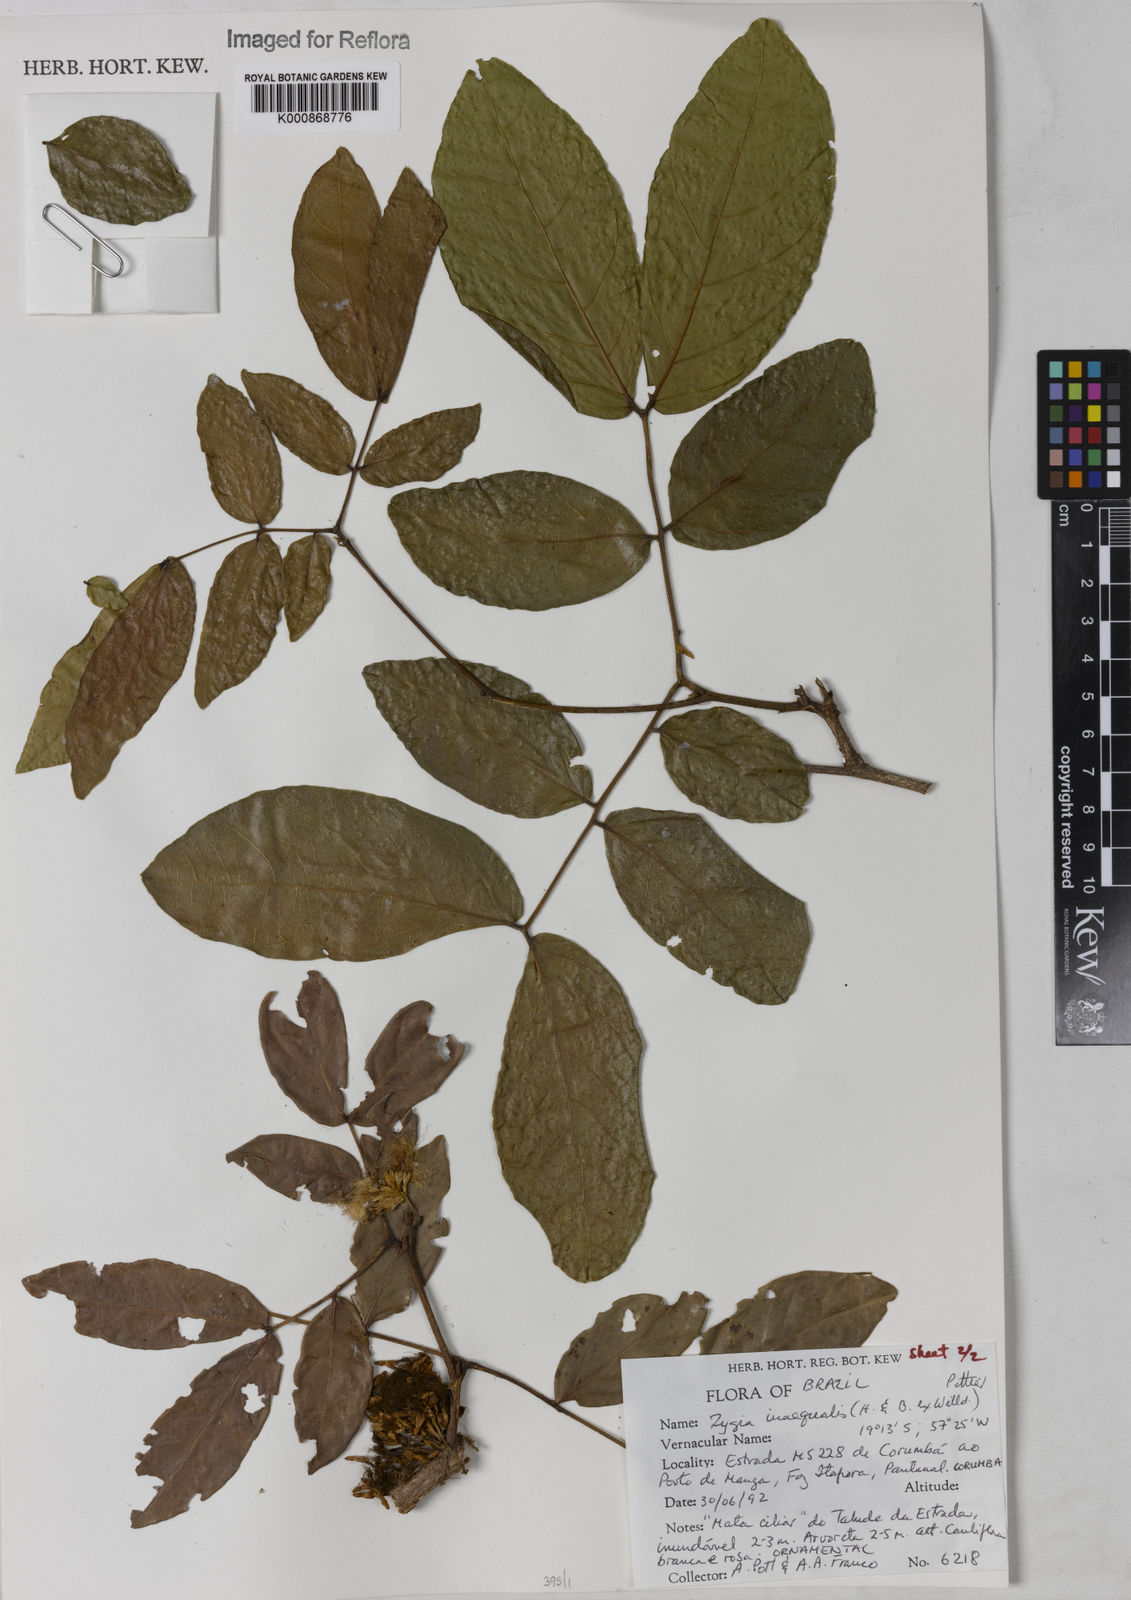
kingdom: Plantae
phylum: Tracheophyta
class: Magnoliopsida
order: Fabales
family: Fabaceae
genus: Zygia
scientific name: Zygia inaequalis
